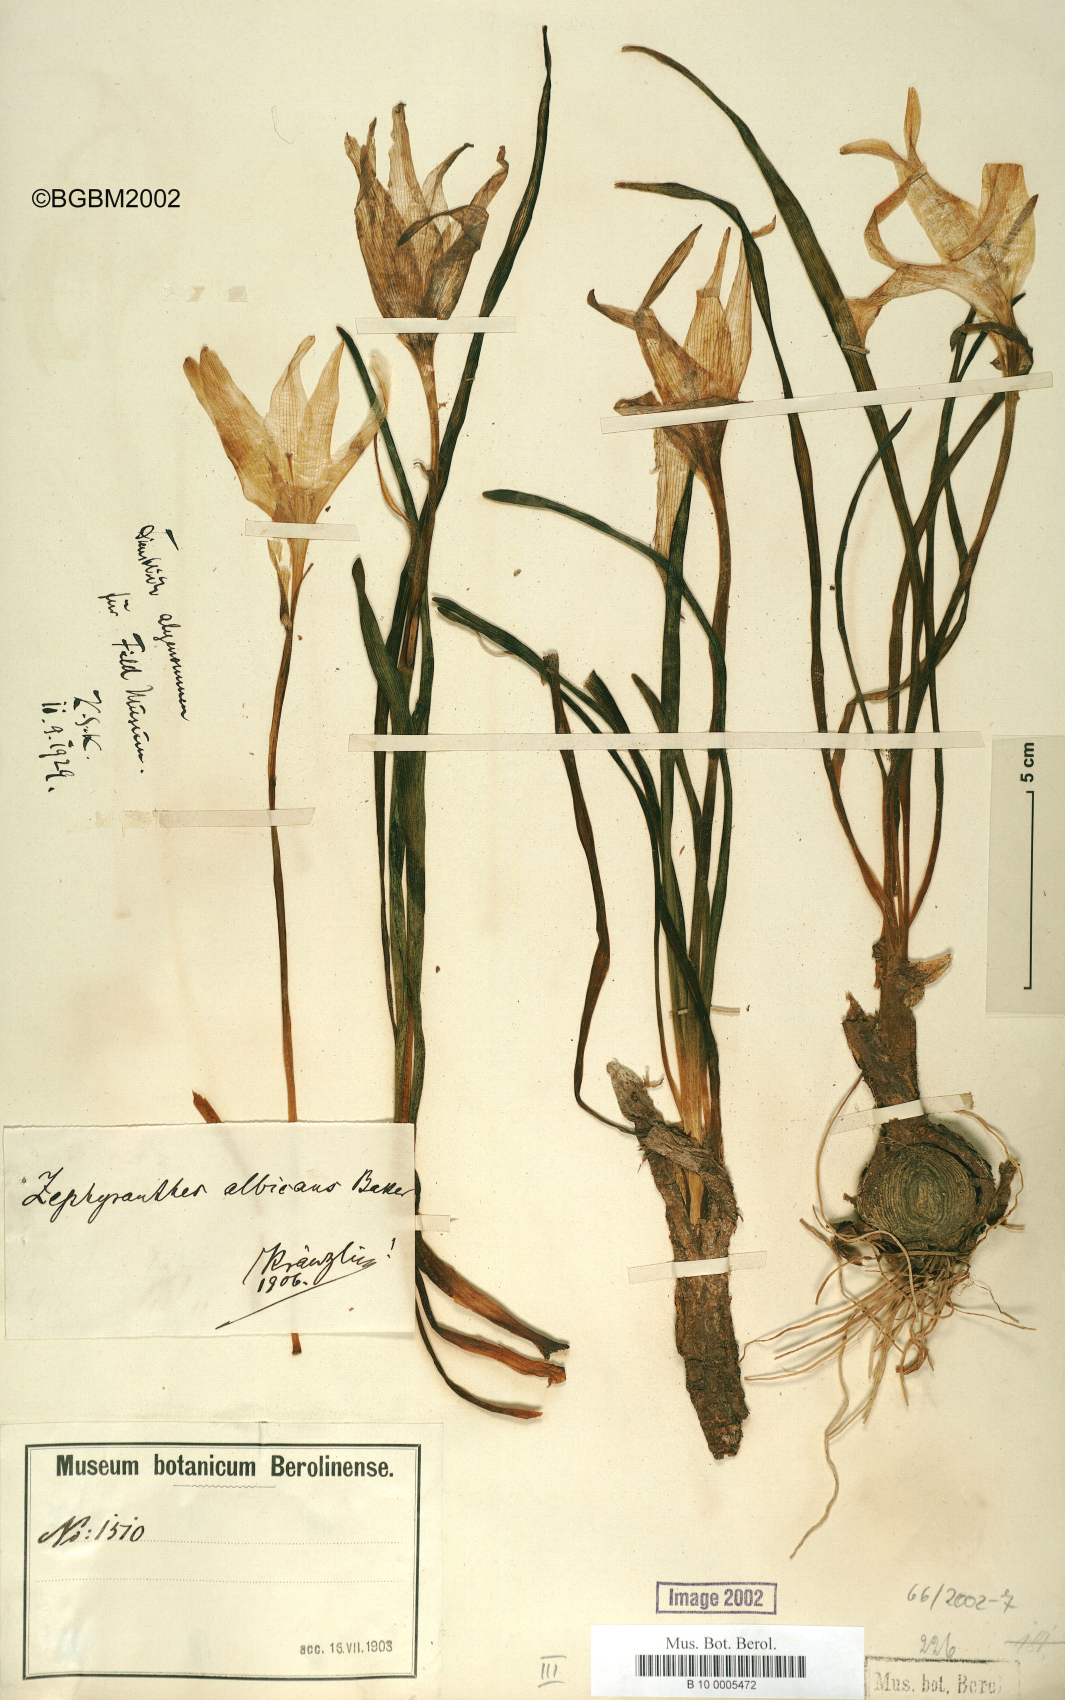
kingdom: Plantae
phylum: Tracheophyta
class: Liliopsida
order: Asparagales
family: Amaryllidaceae
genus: Pyrolirion
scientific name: Pyrolirion albicans
